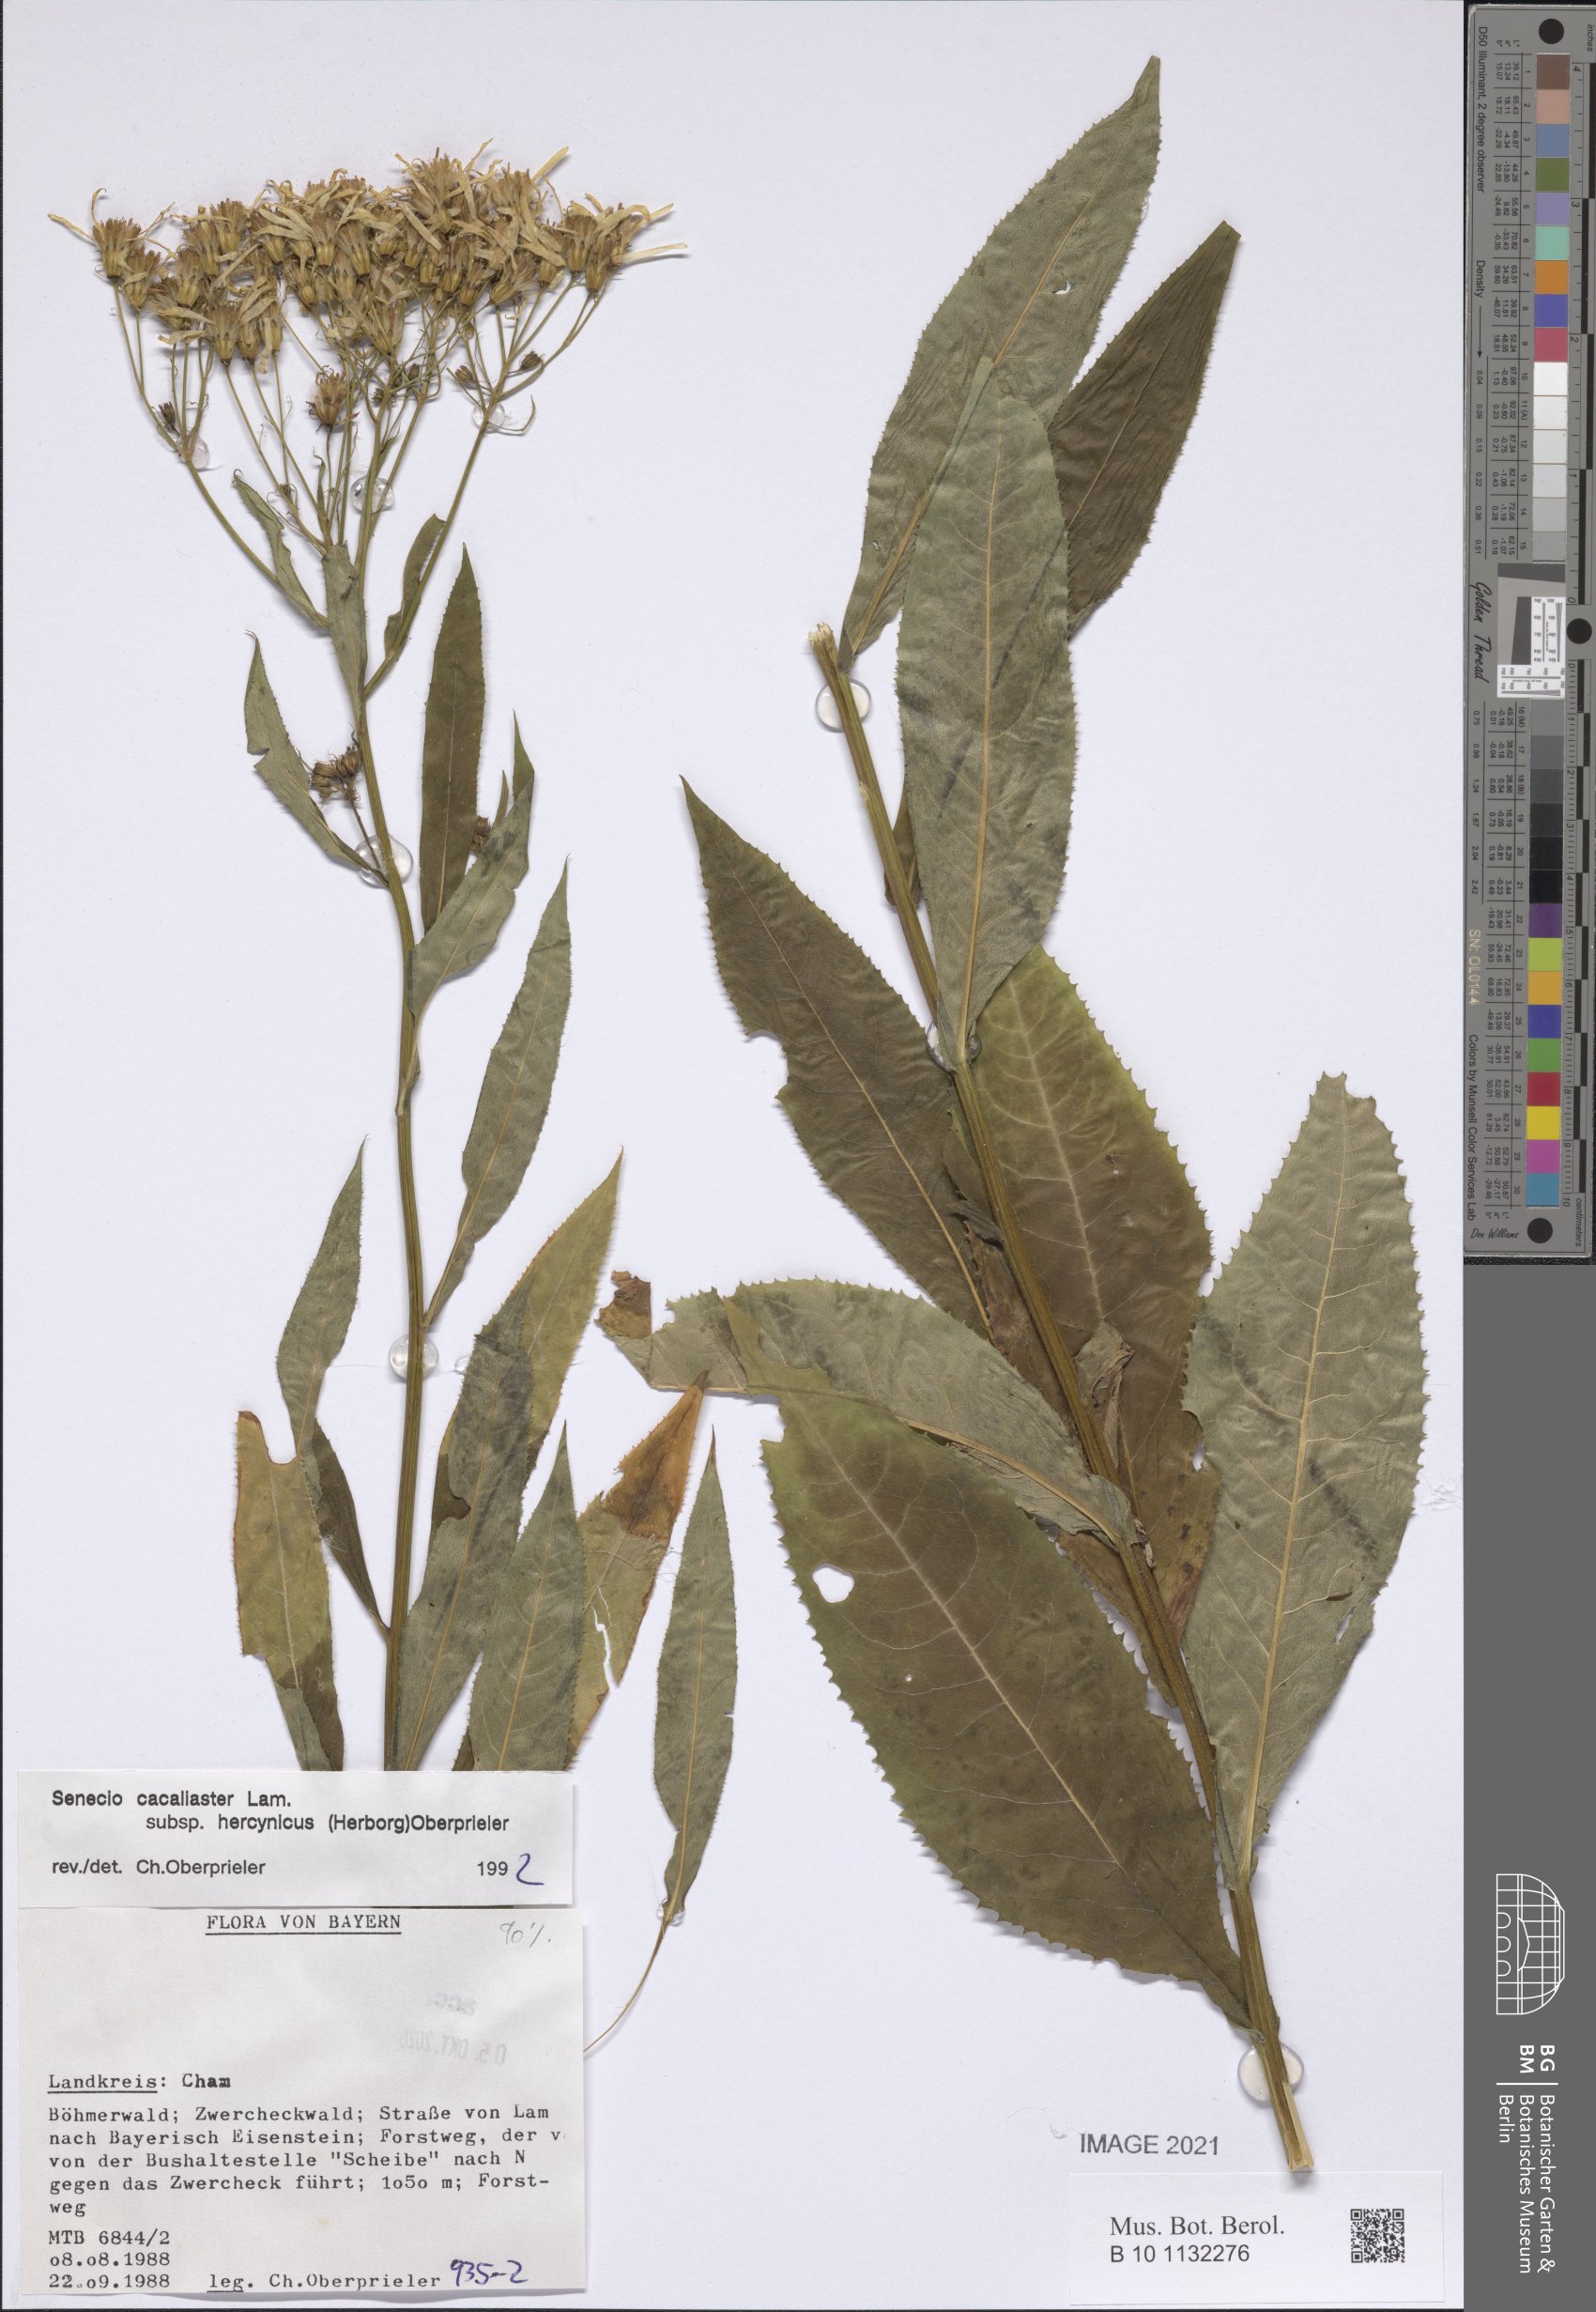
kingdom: Plantae
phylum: Tracheophyta
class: Magnoliopsida
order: Asterales
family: Asteraceae
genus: Senecio
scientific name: Senecio hercynicus
